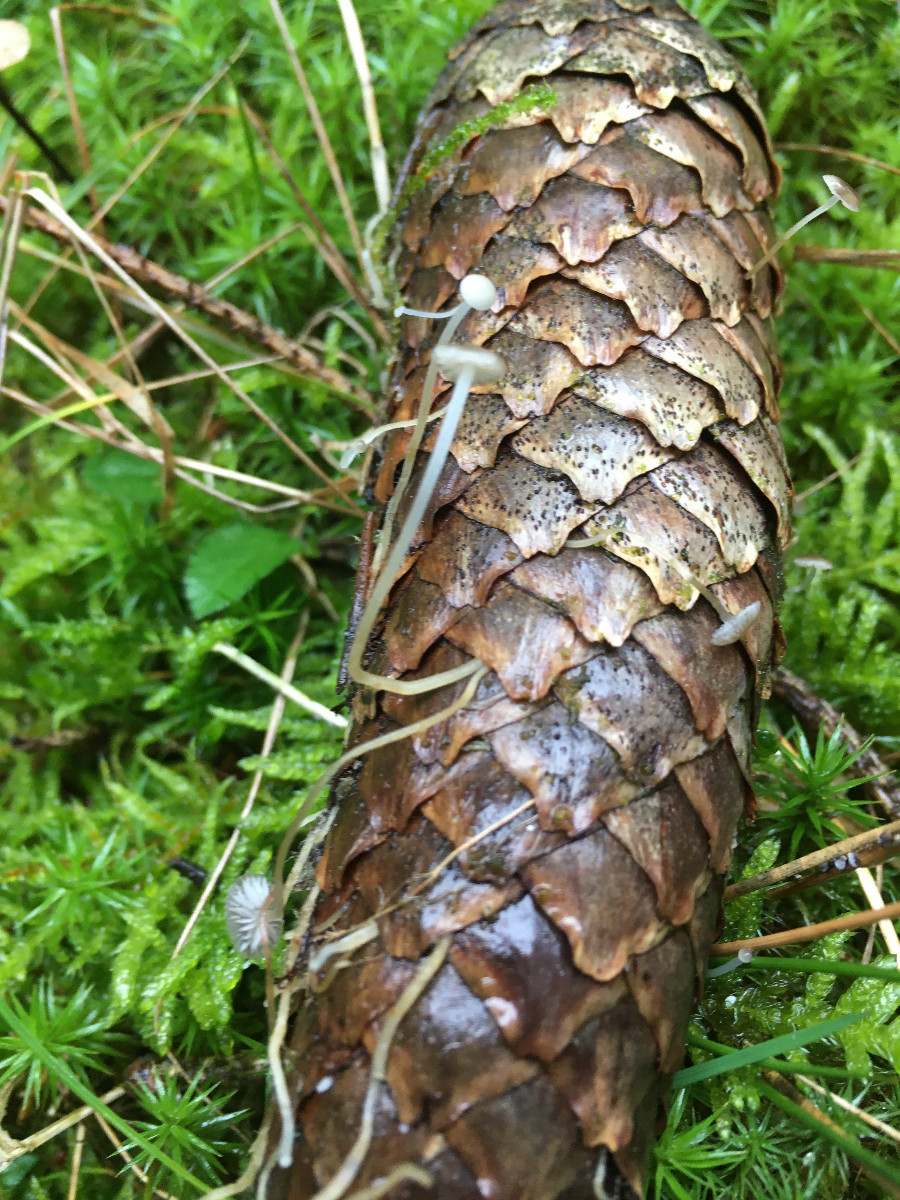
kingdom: Fungi
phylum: Basidiomycota
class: Agaricomycetes
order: Agaricales
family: Physalacriaceae
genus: Strobilurus
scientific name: Strobilurus esculentus
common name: gran-koglehat
